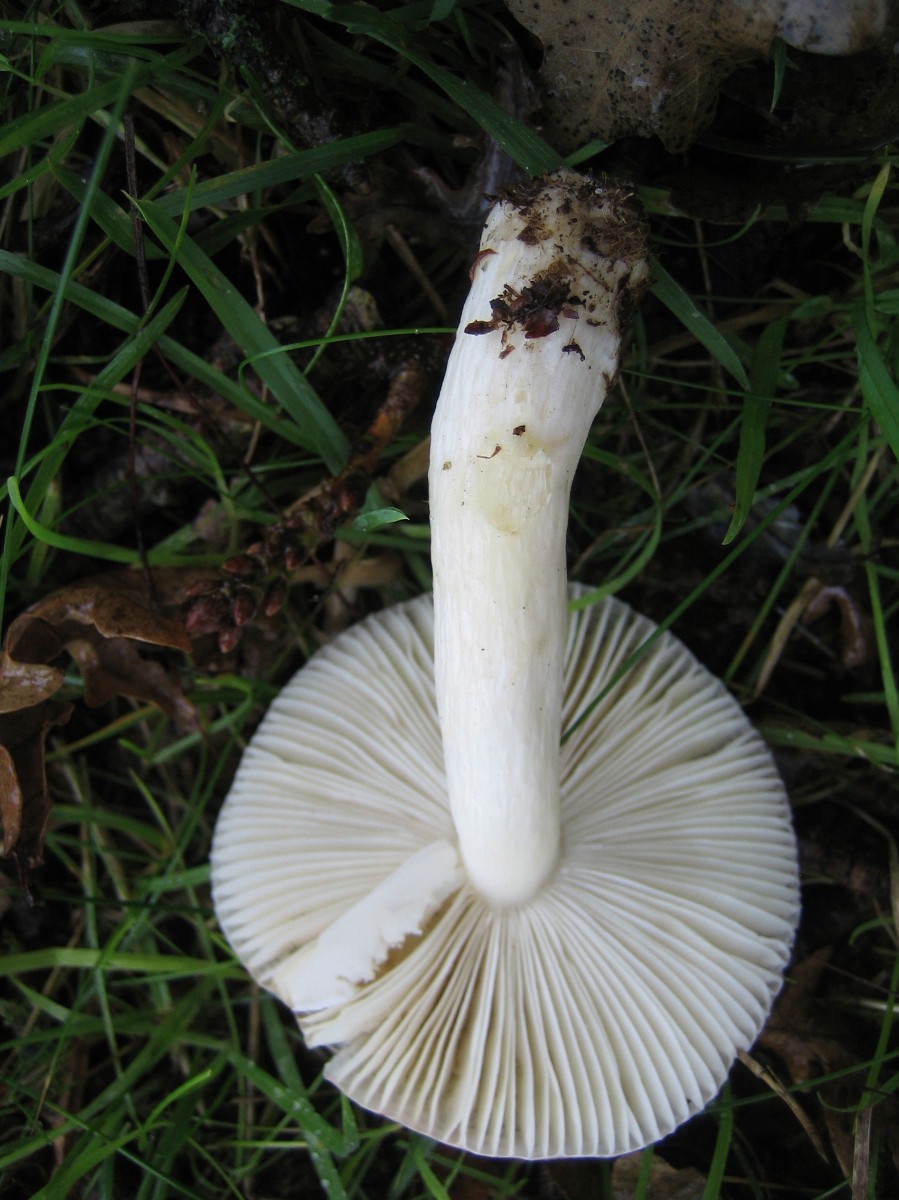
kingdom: Fungi
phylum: Basidiomycota
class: Agaricomycetes
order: Russulales
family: Russulaceae
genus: Russula
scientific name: Russula
